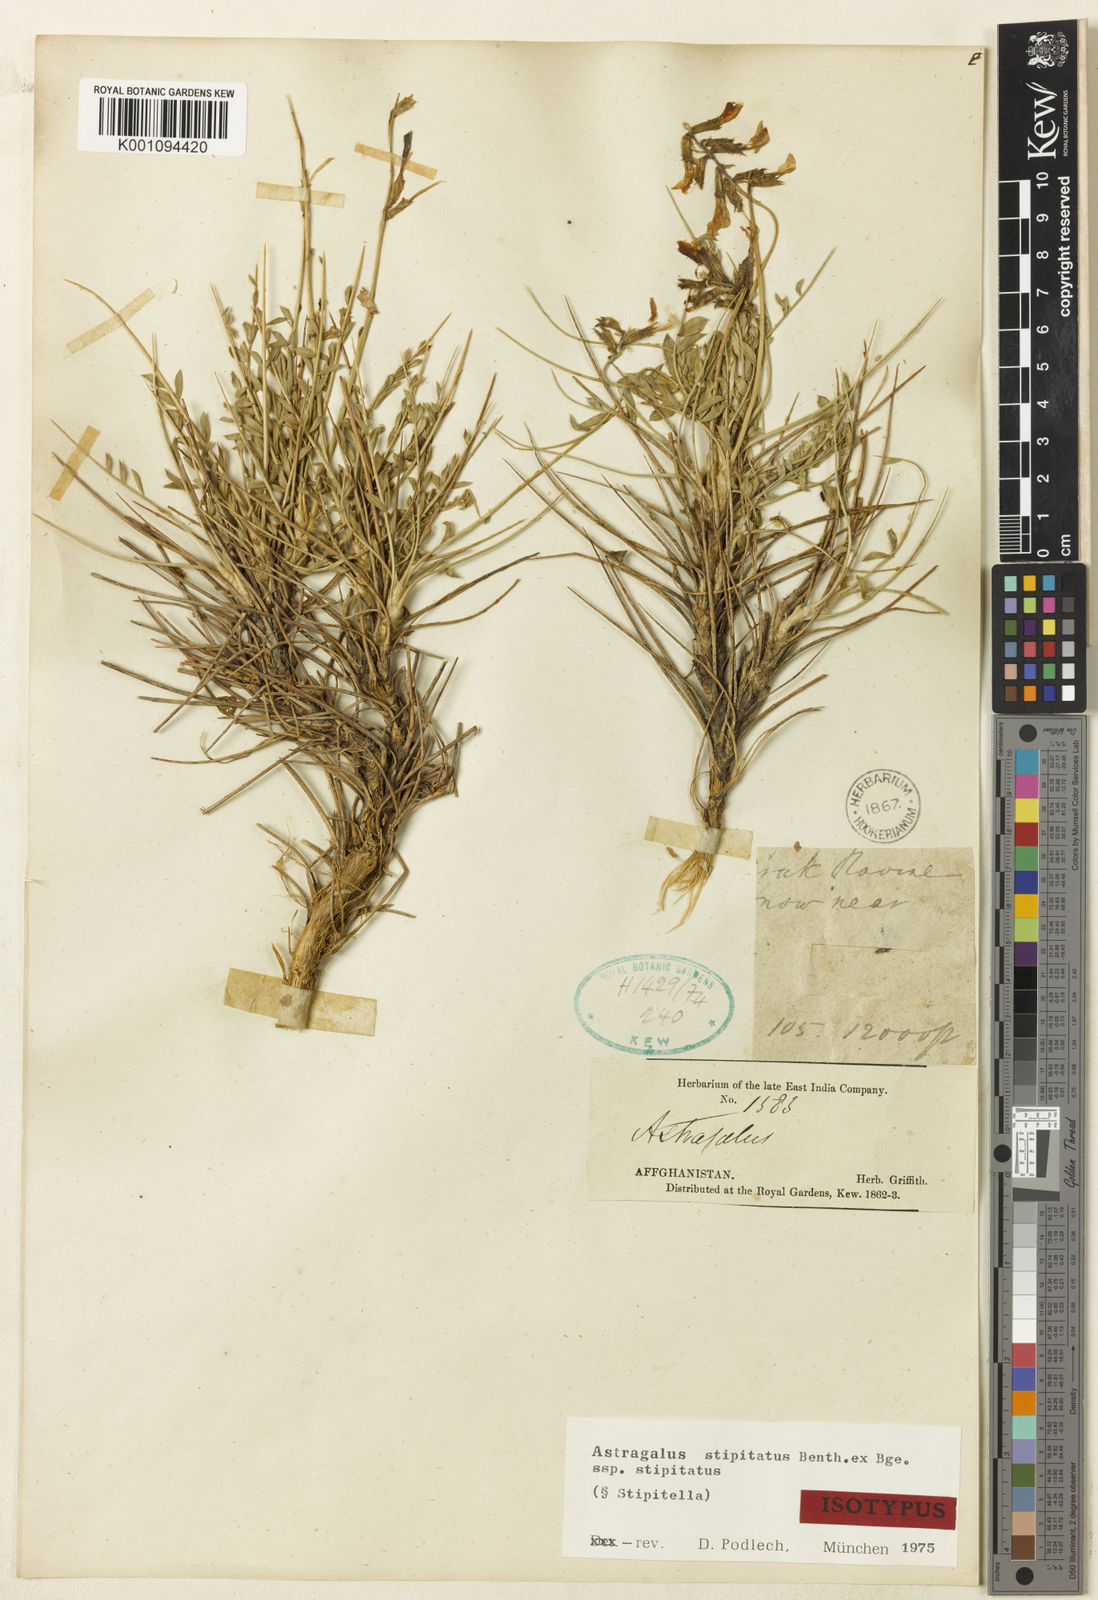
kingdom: Plantae
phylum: Tracheophyta
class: Magnoliopsida
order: Fabales
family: Fabaceae
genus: Astragalus
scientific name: Astragalus stipitatus
